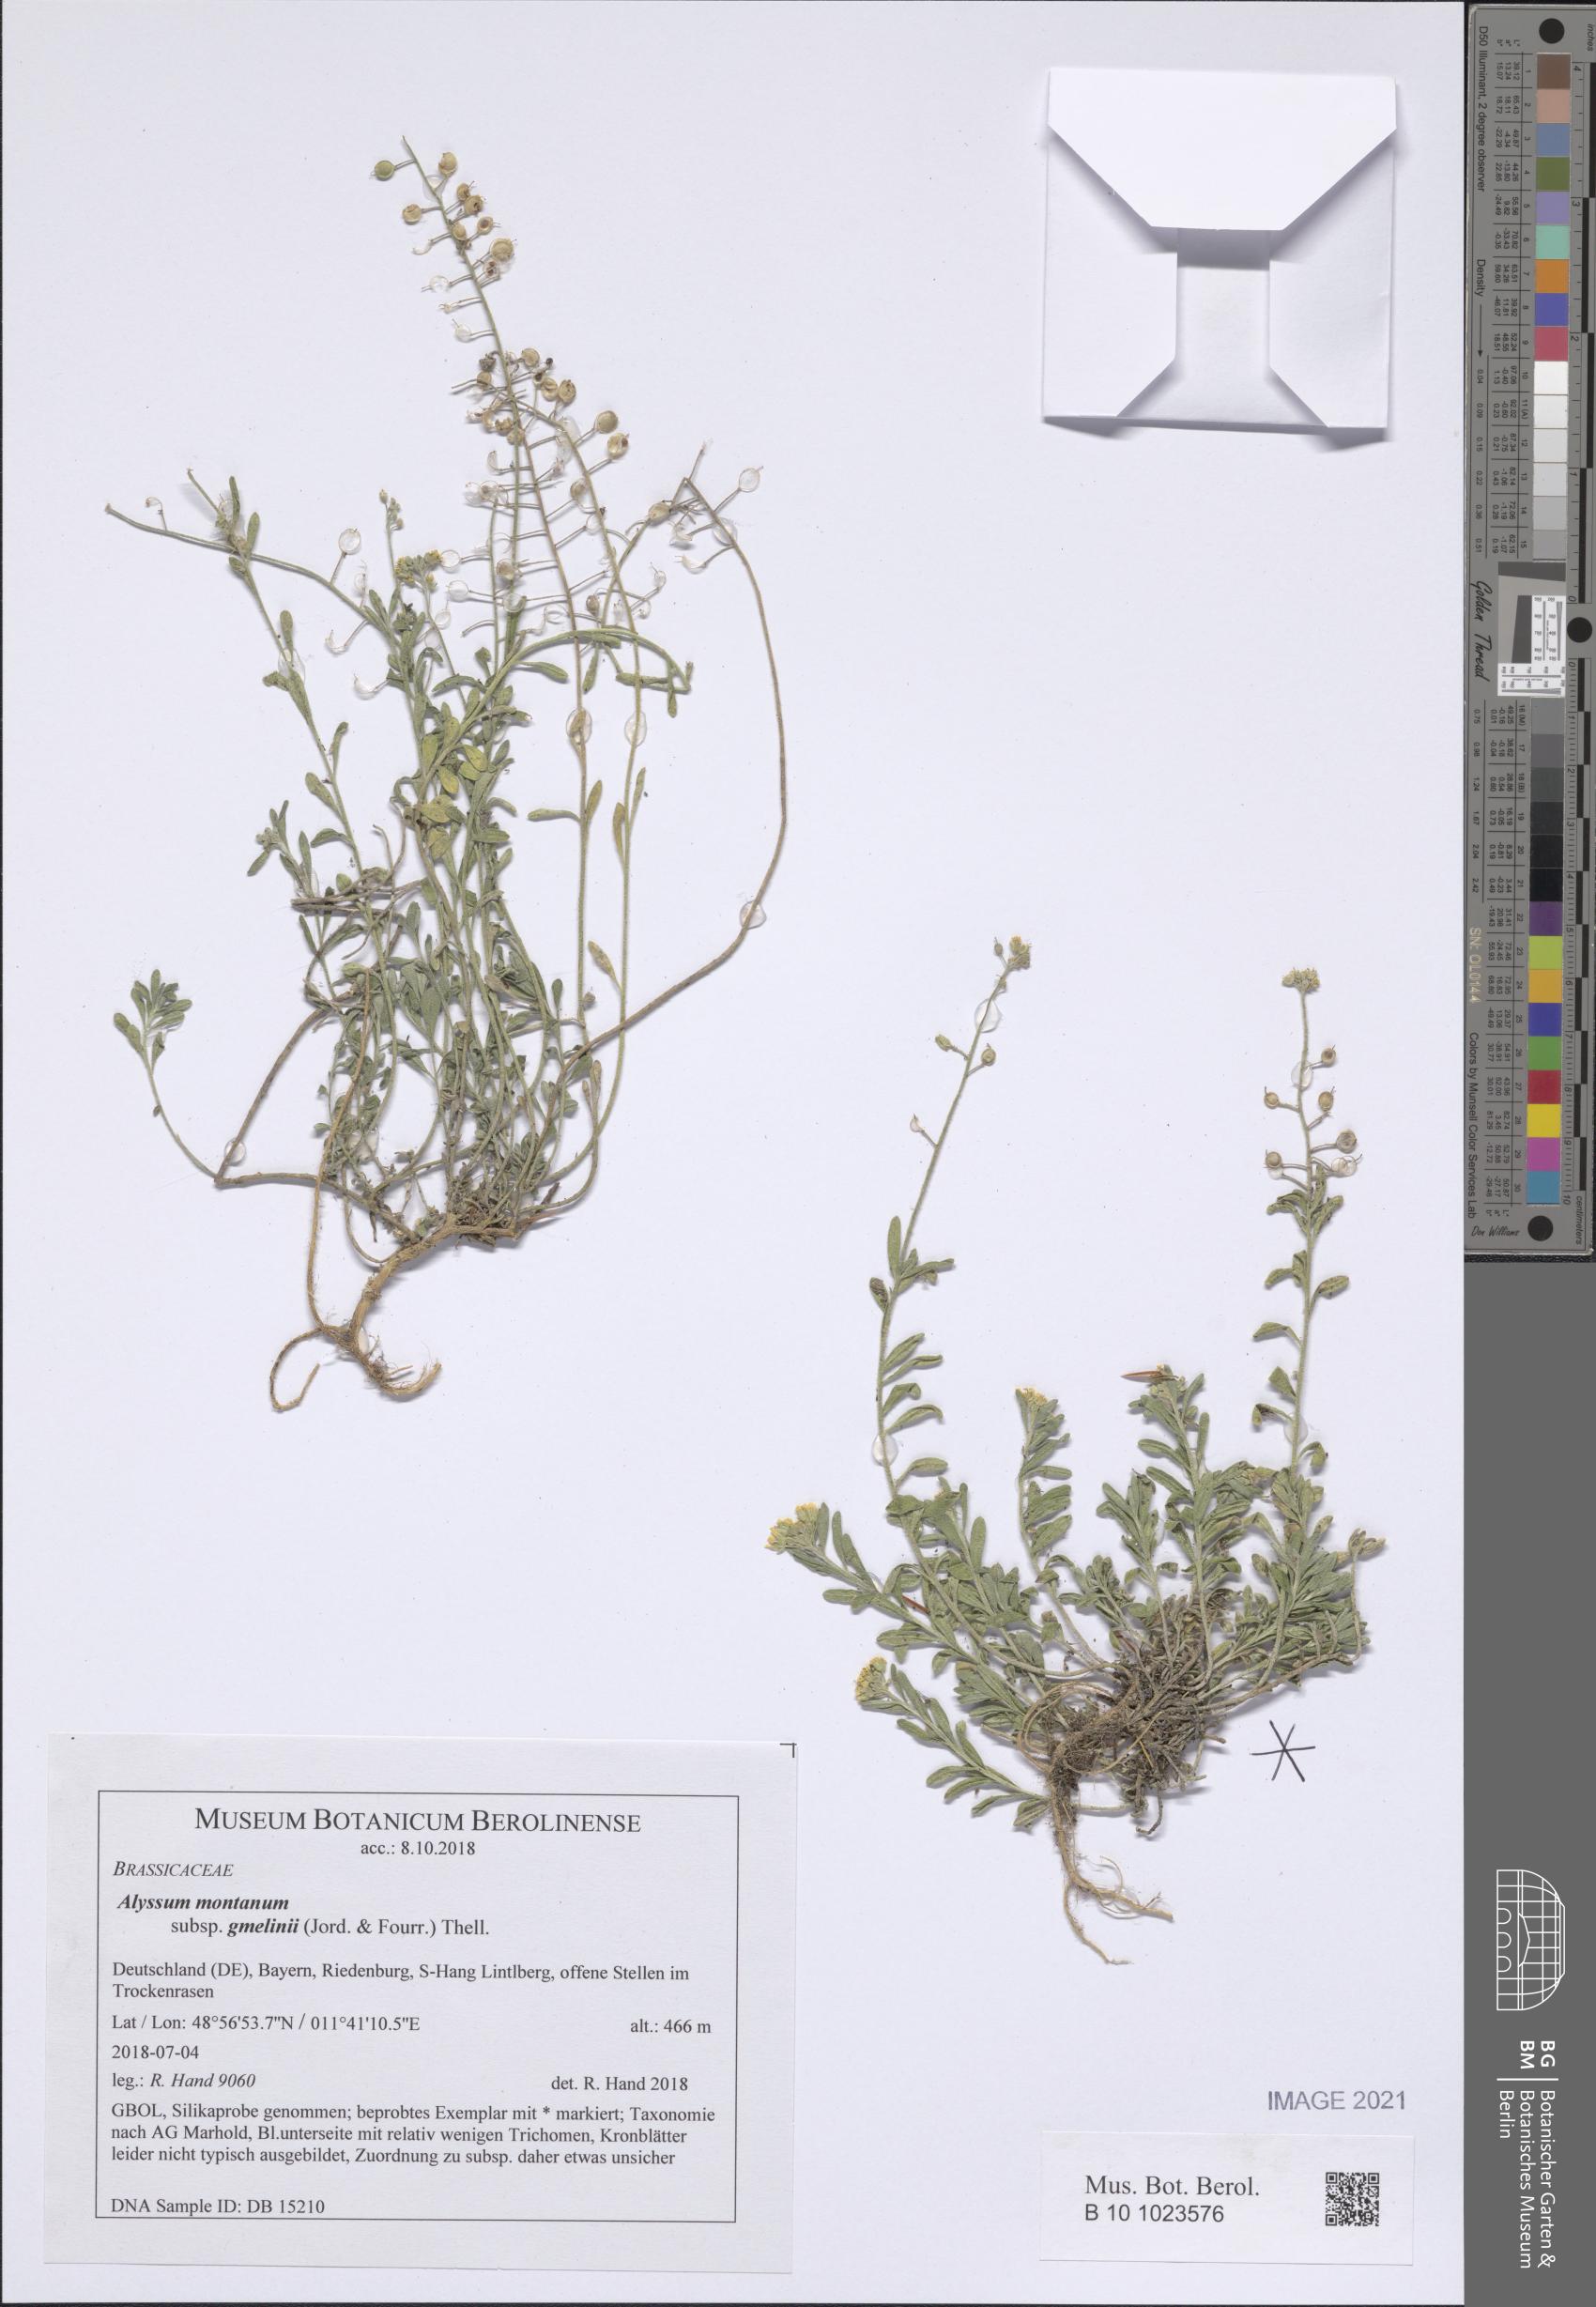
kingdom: Plantae
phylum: Tracheophyta
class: Magnoliopsida
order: Brassicales
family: Brassicaceae
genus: Alyssum
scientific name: Alyssum gmelinii
